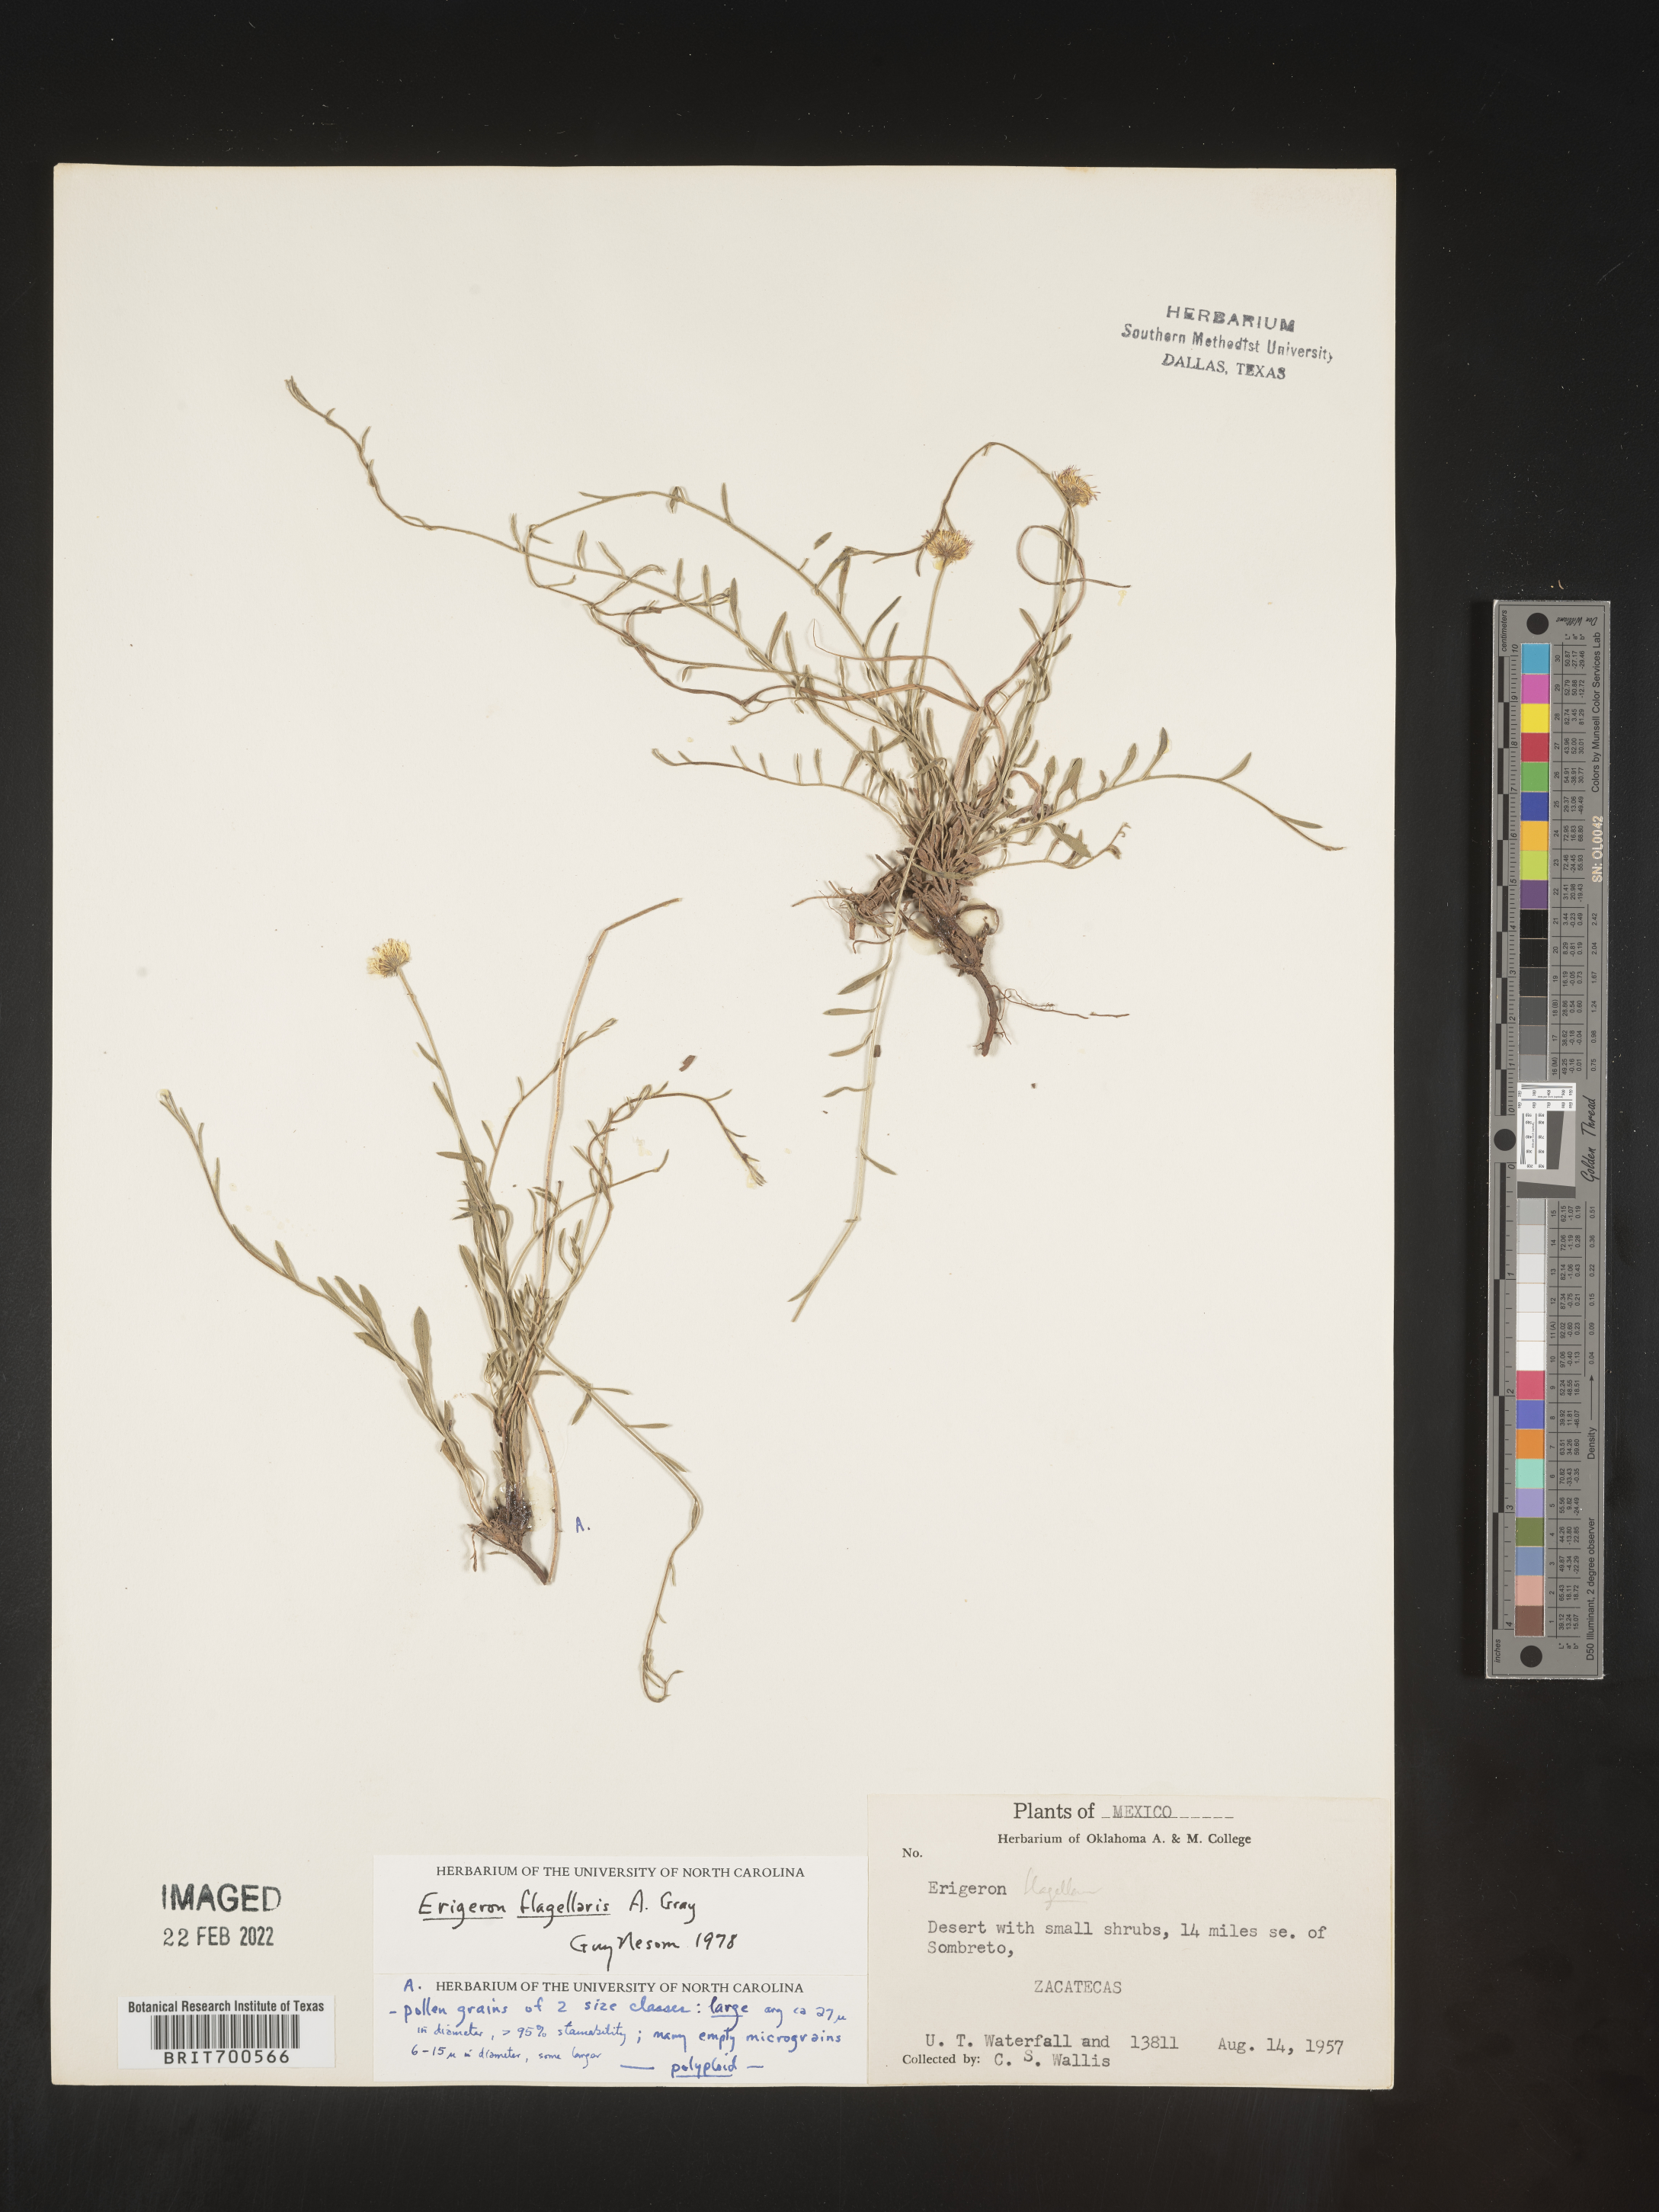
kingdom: Plantae
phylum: Tracheophyta
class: Magnoliopsida
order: Asterales
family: Asteraceae
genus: Erigeron
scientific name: Erigeron flagellaris
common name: Running fleabane
